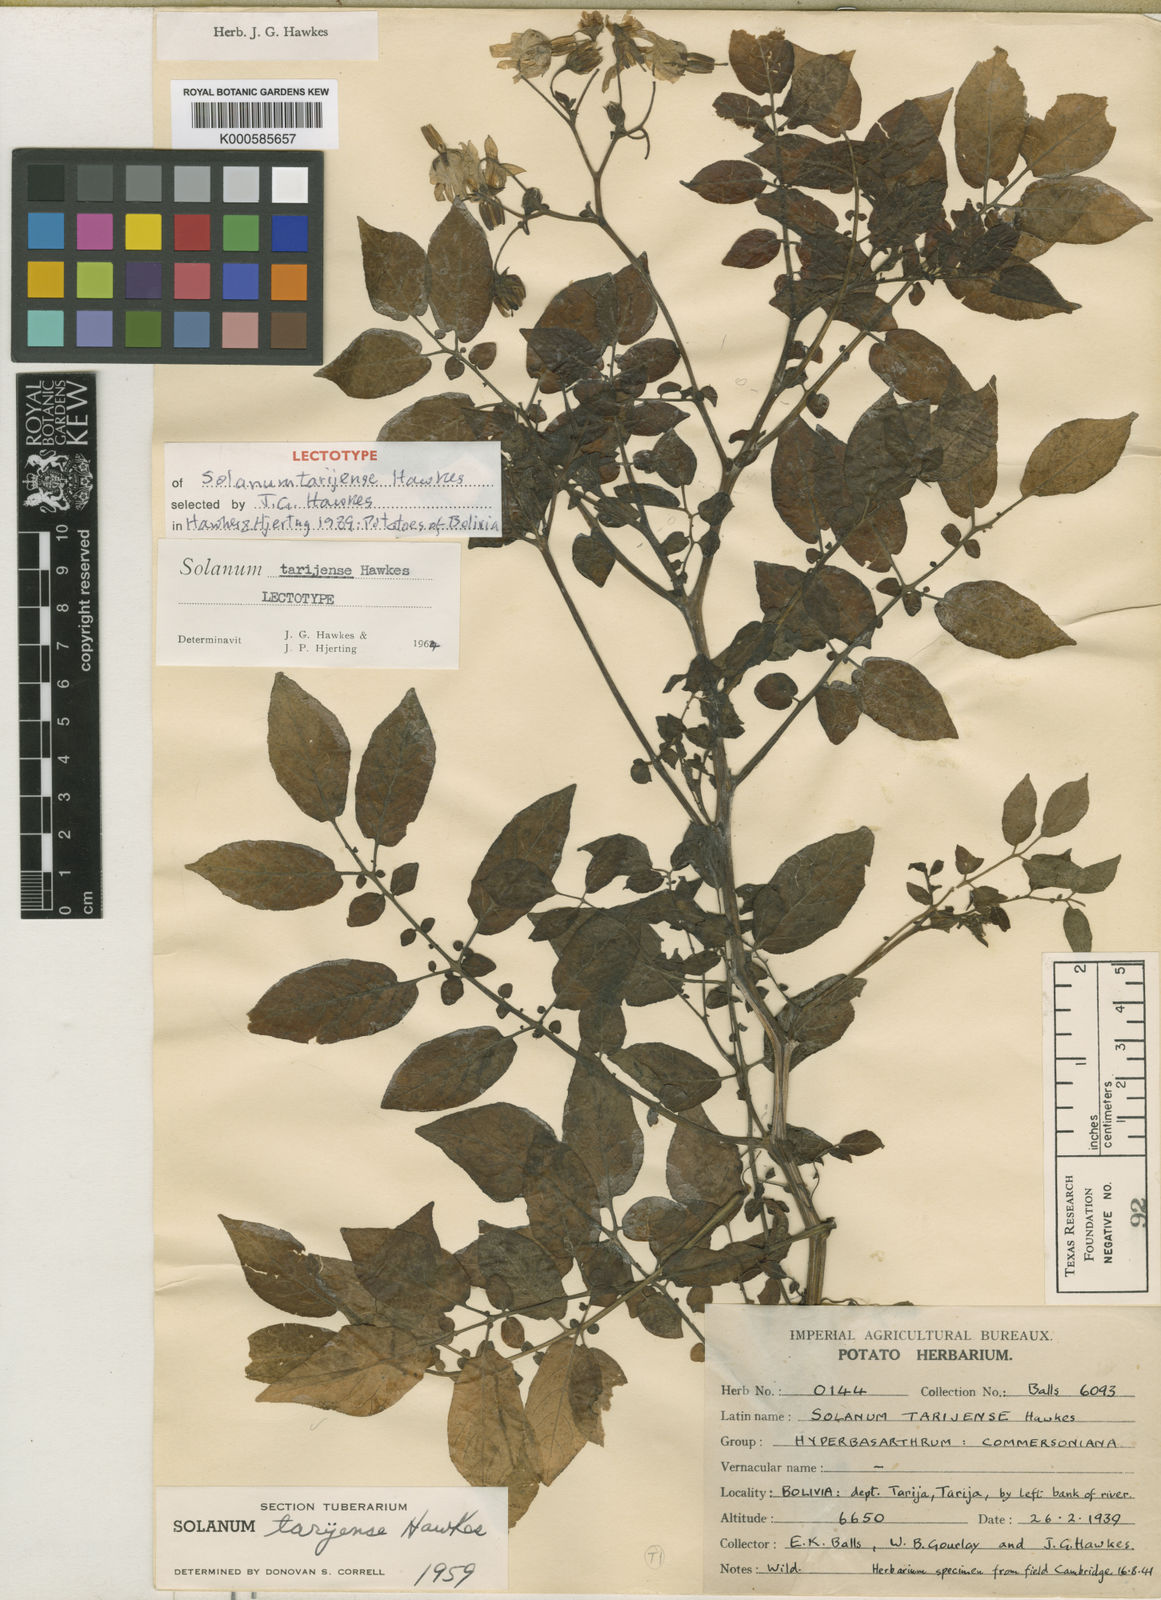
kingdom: Plantae
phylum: Tracheophyta
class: Magnoliopsida
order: Solanales
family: Solanaceae
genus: Solanum
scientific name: Solanum tarijense
